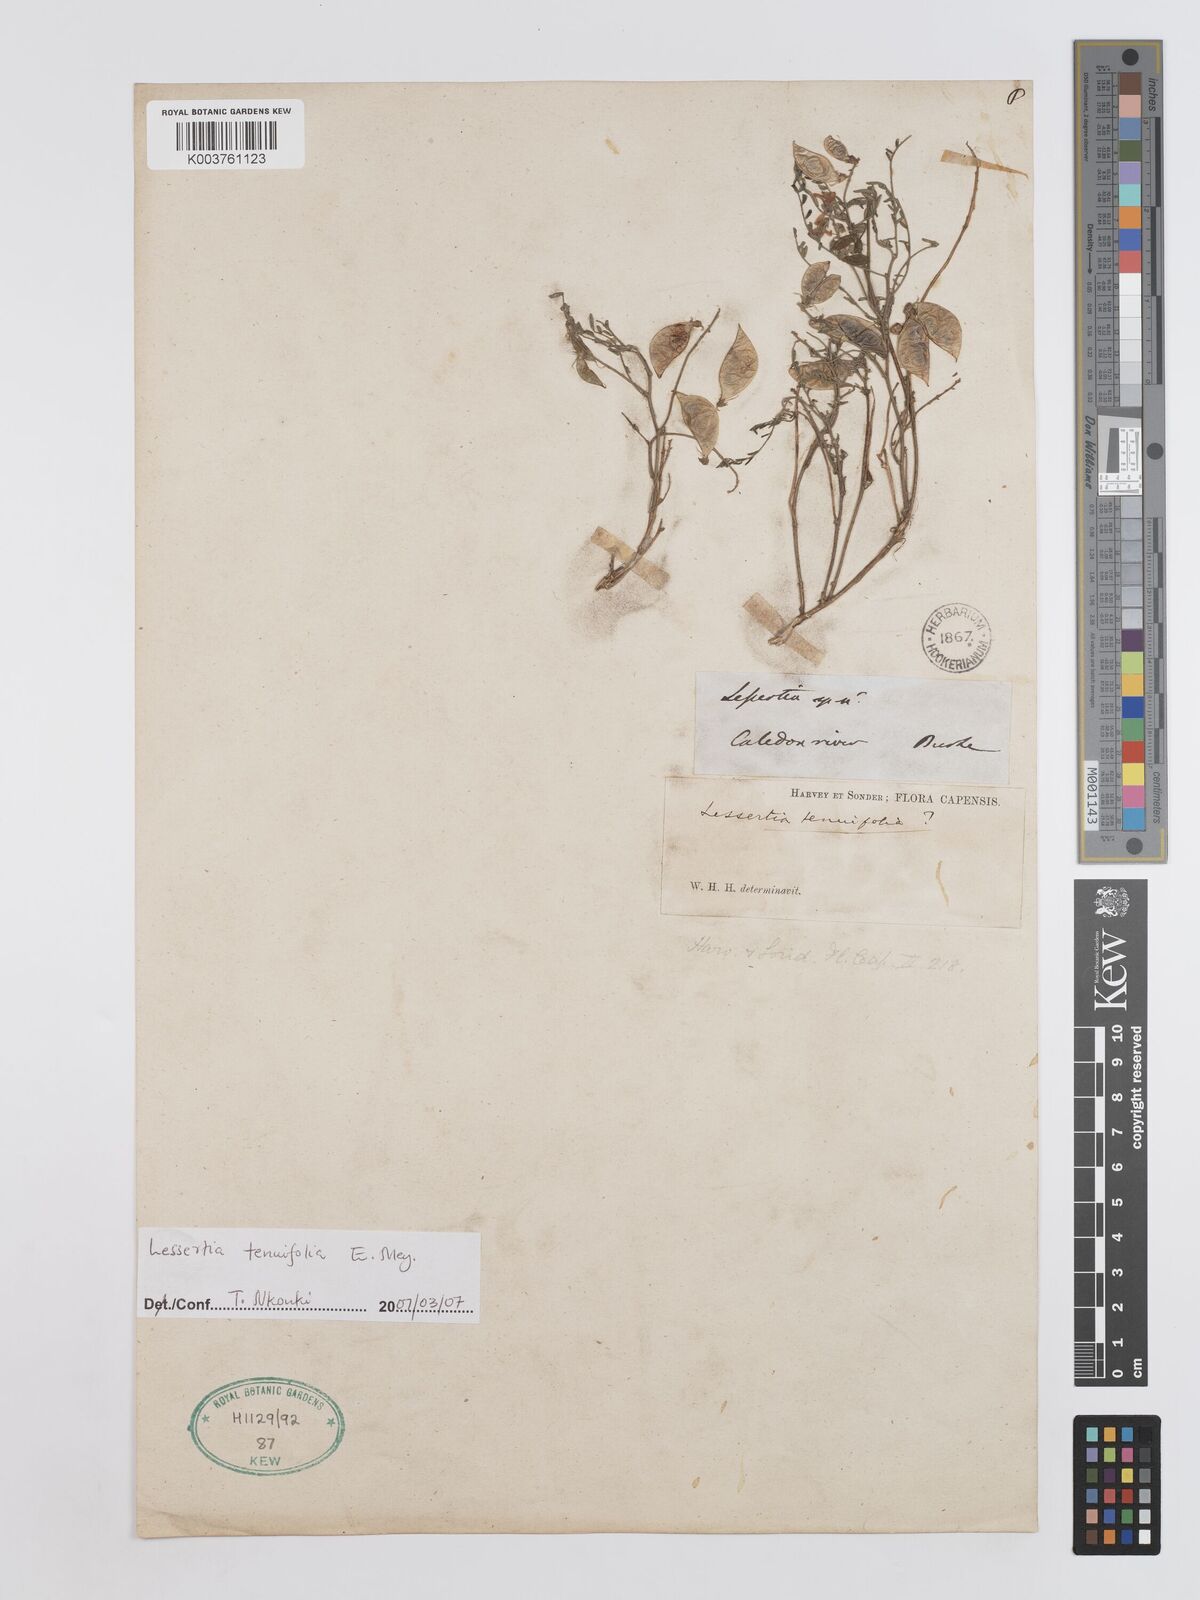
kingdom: Plantae
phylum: Tracheophyta
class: Magnoliopsida
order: Fabales
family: Fabaceae
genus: Lessertia
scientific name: Lessertia tenuifolia
